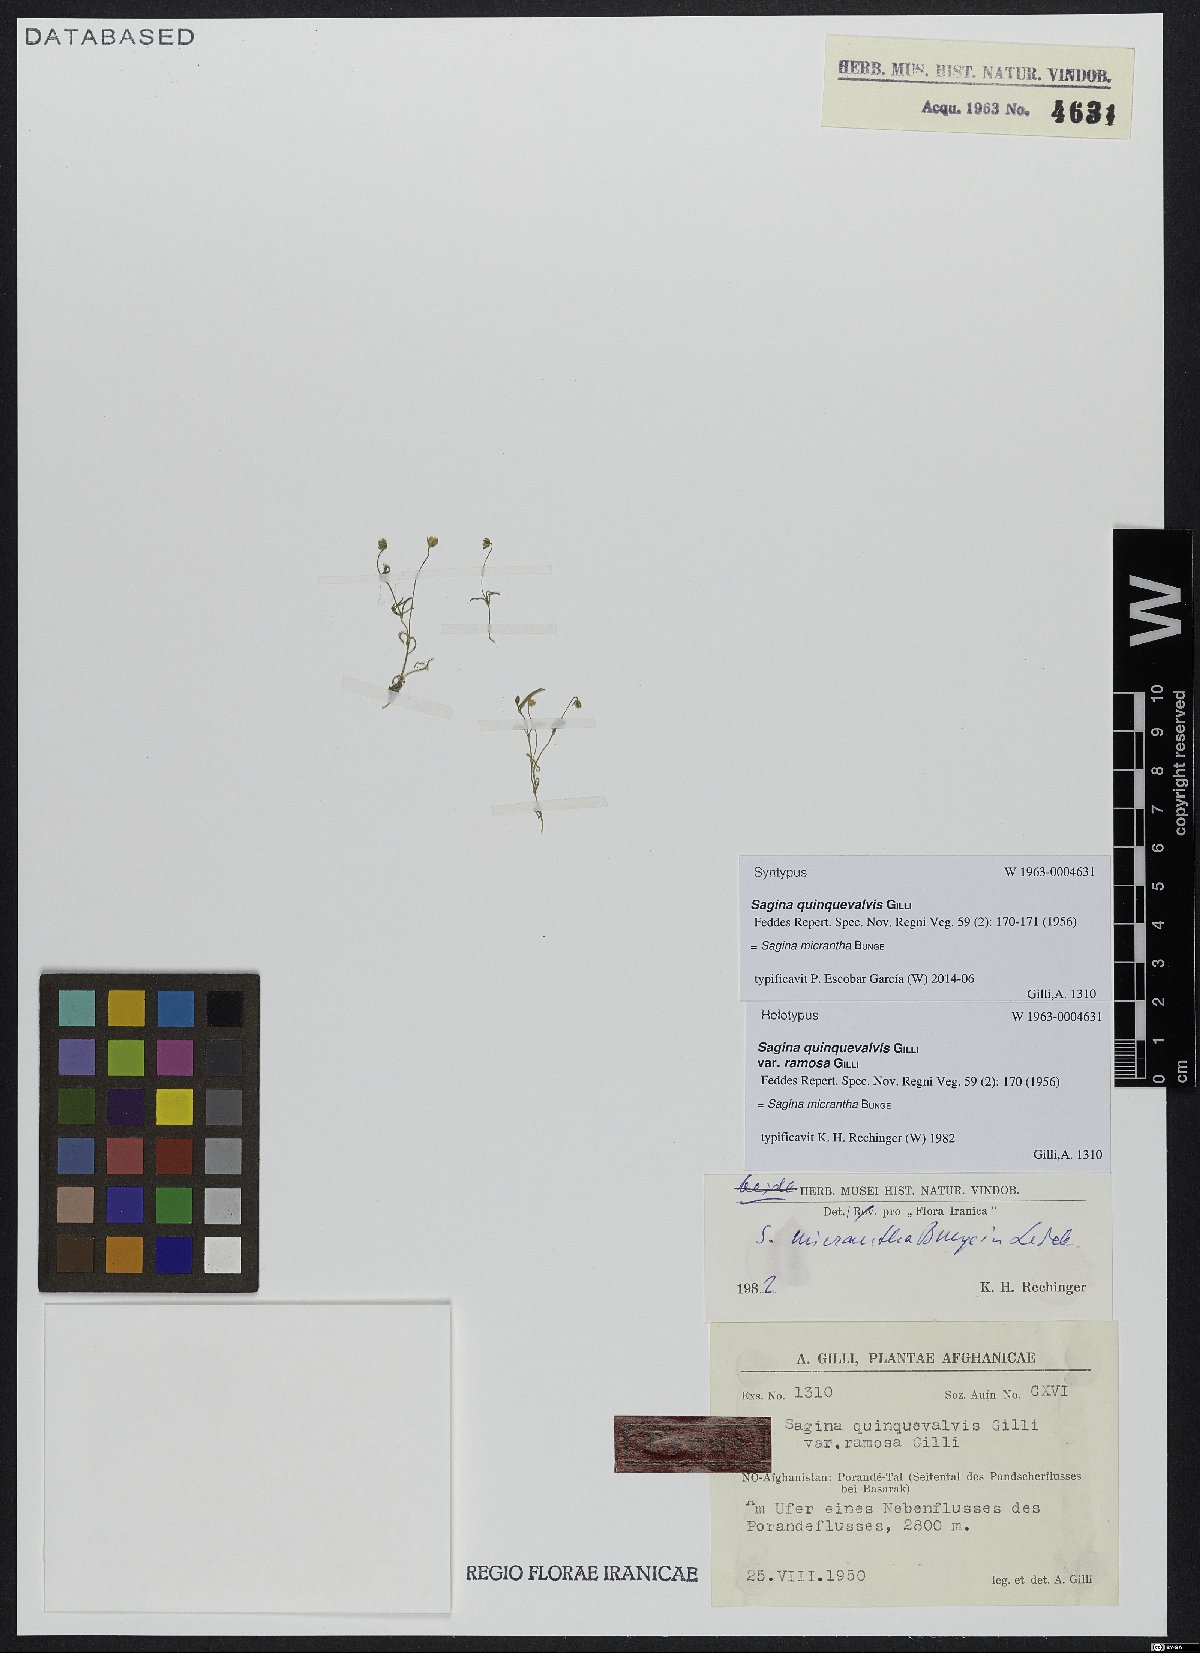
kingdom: Plantae
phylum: Tracheophyta
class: Magnoliopsida
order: Caryophyllales
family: Caryophyllaceae
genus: Sagina
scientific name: Sagina micrantha
